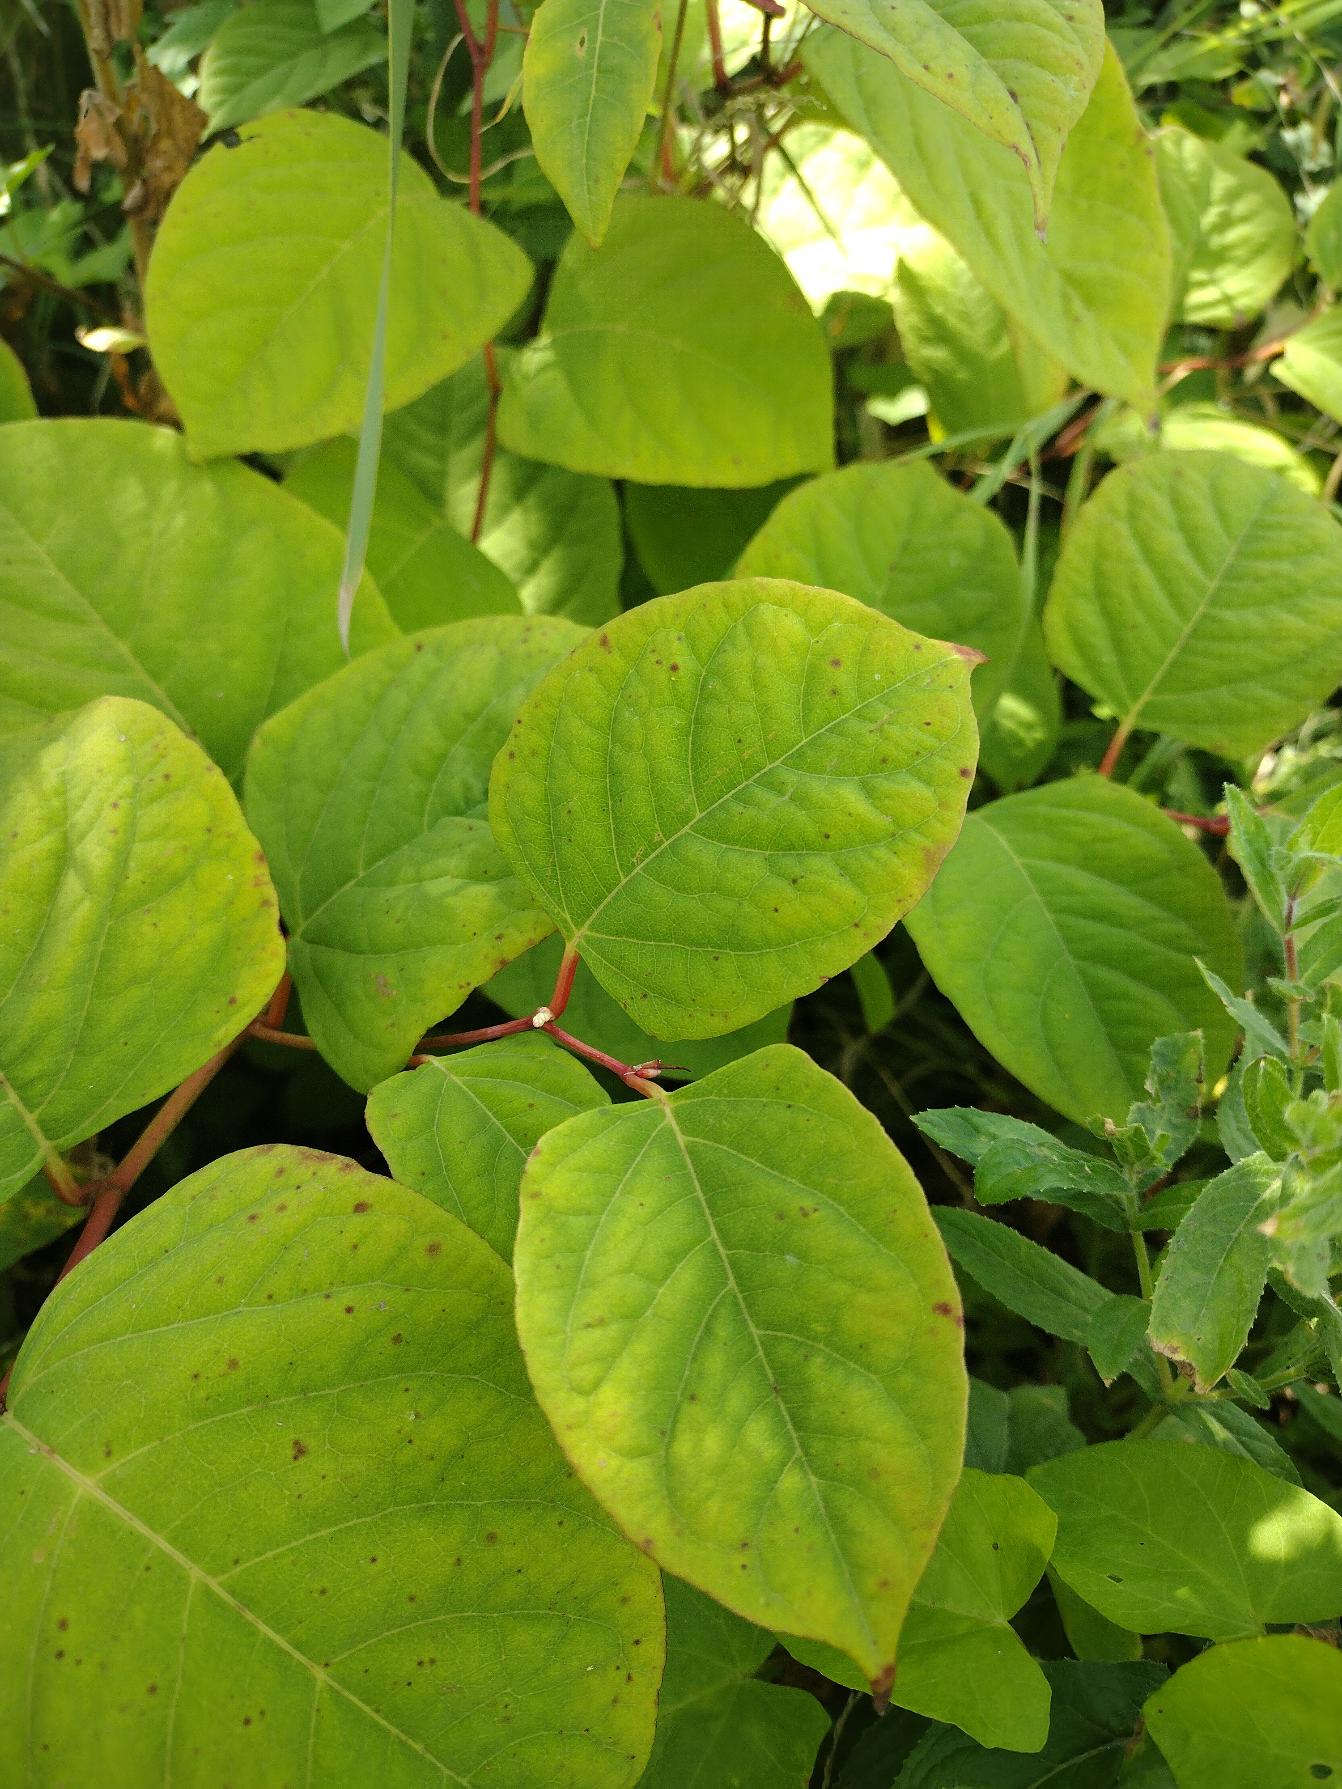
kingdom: Plantae
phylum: Tracheophyta
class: Magnoliopsida
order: Caryophyllales
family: Polygonaceae
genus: Reynoutria
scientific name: Reynoutria japonica
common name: Japan-pileurt
